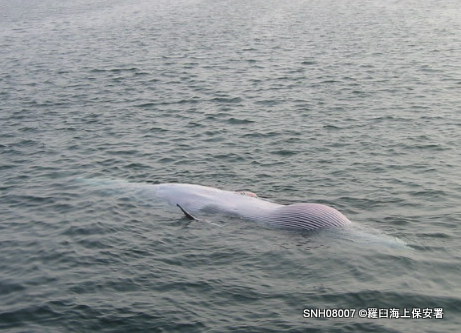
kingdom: Animalia
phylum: Chordata
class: Mammalia
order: Cetacea
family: Balaenopteridae
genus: Balaenoptera
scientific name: Balaenoptera acutorostrata
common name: Minke whale
